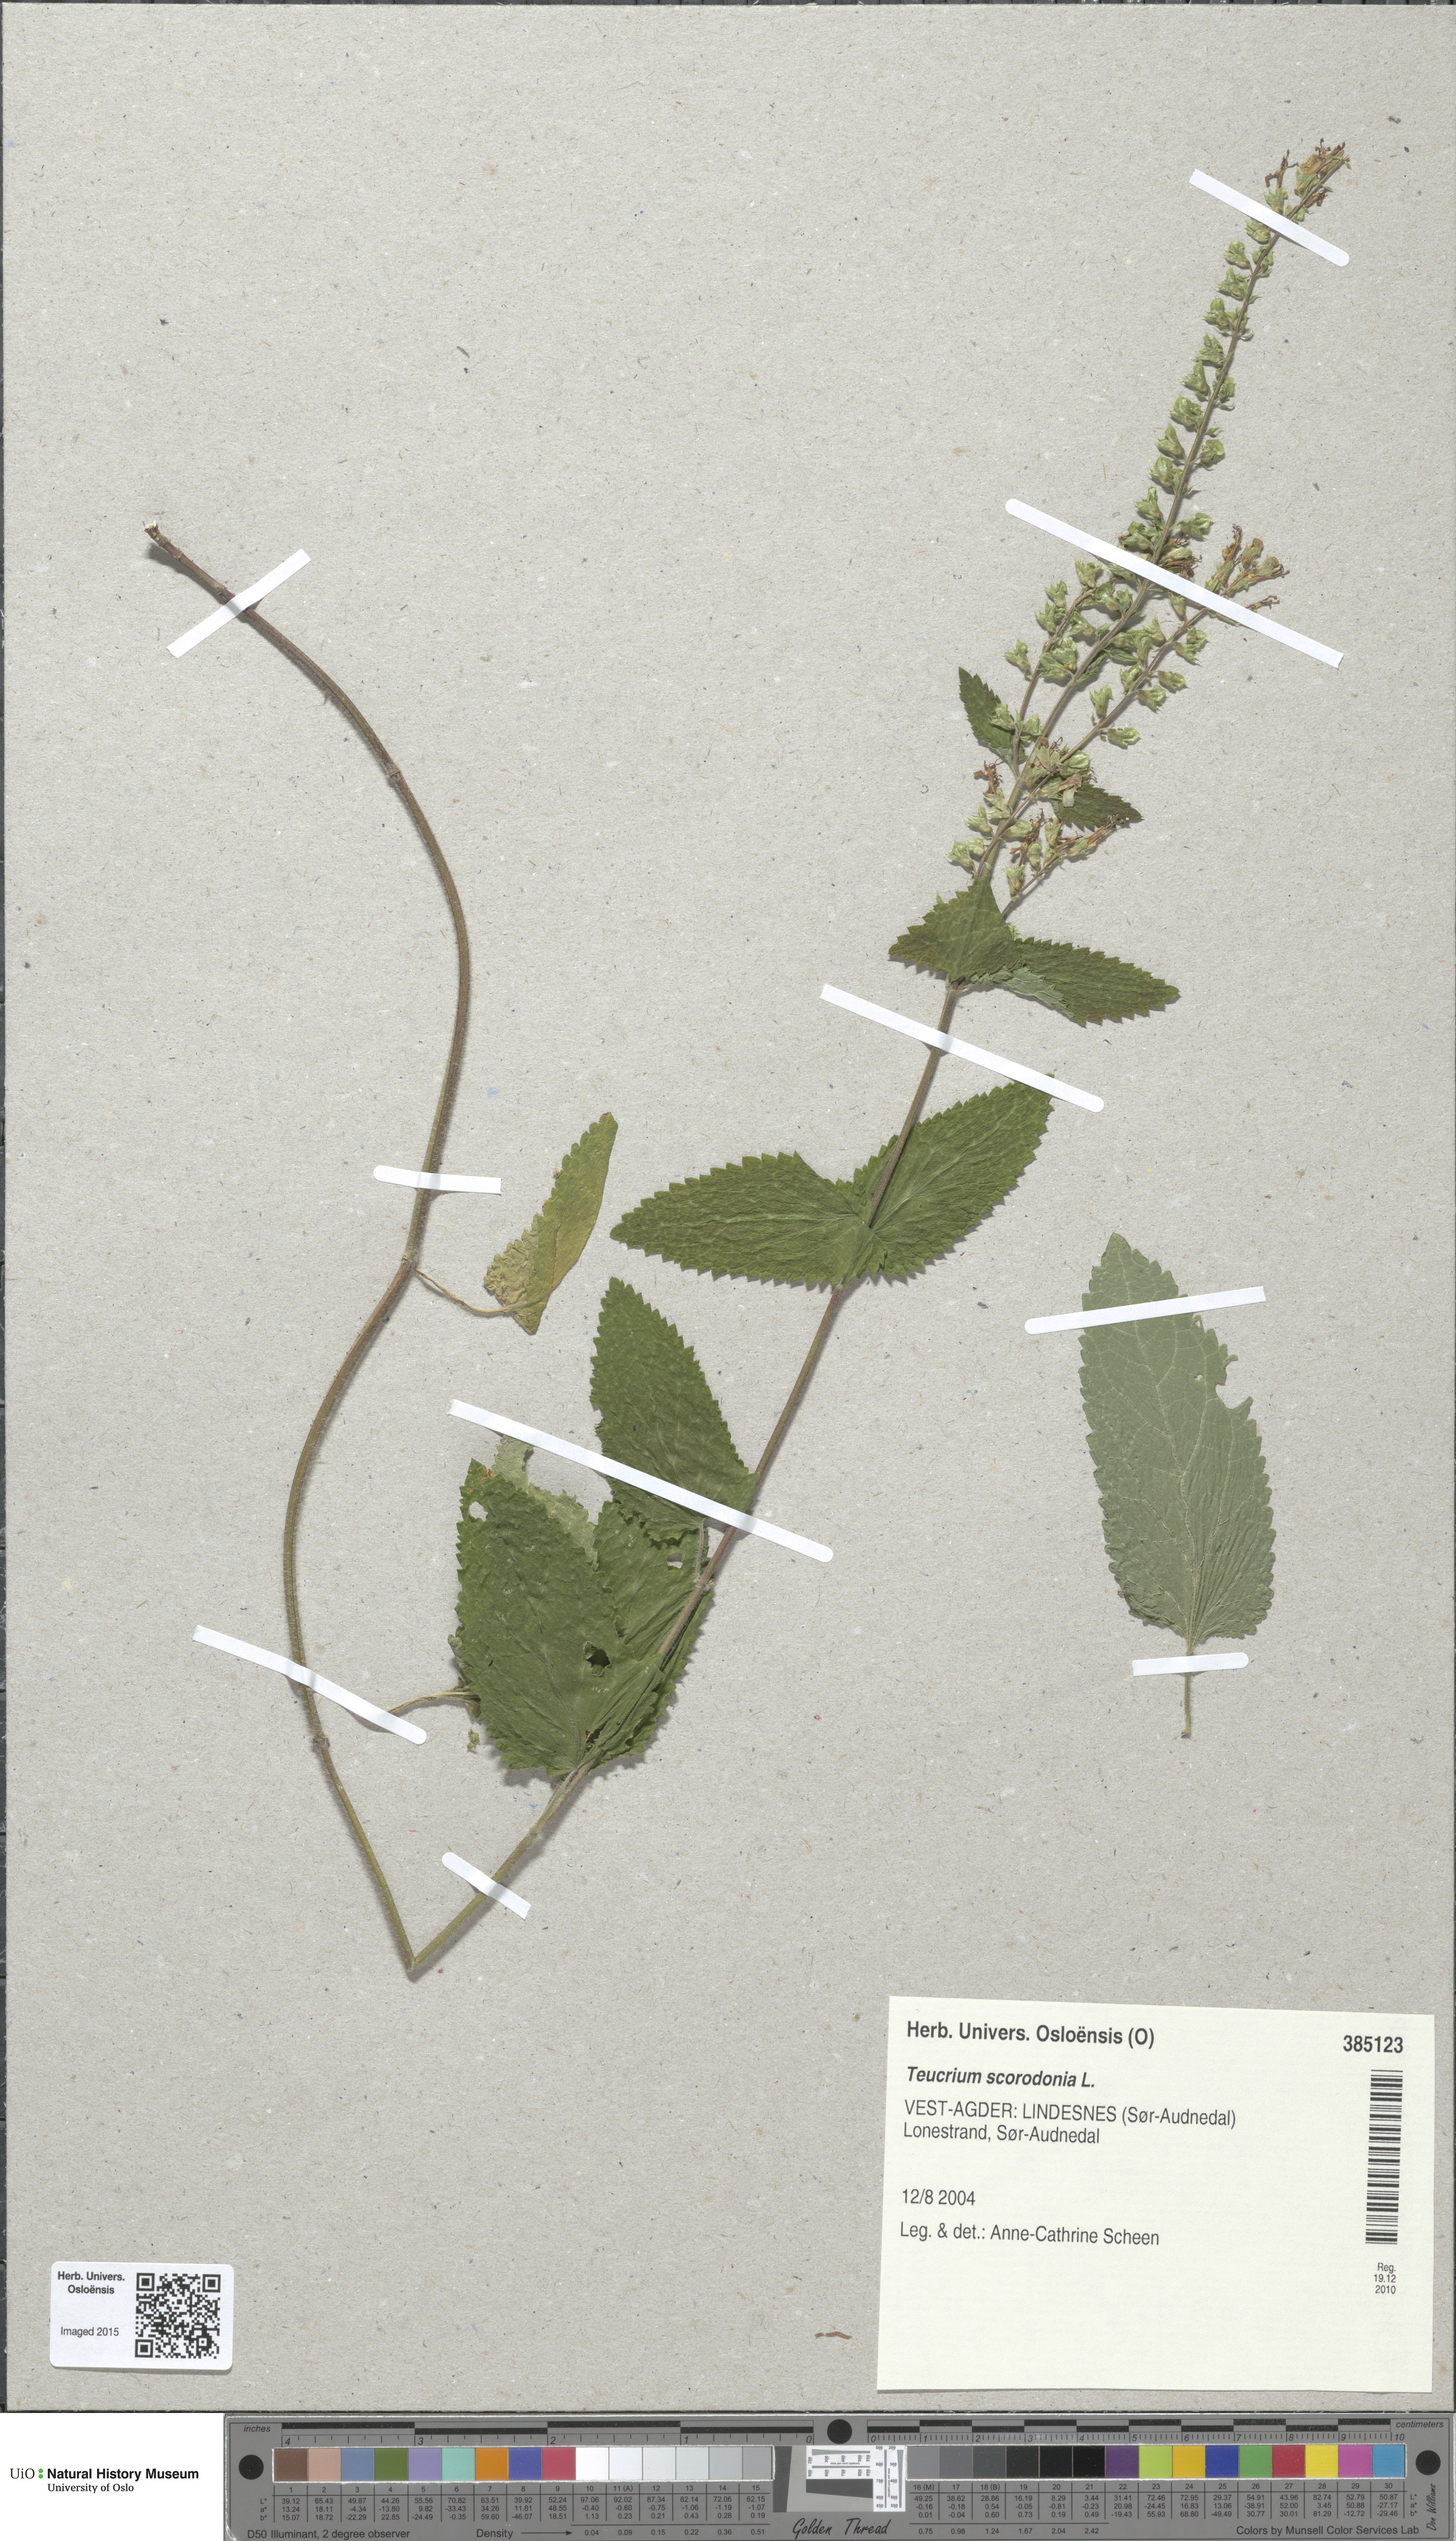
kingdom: Plantae
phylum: Tracheophyta
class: Magnoliopsida
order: Lamiales
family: Lamiaceae
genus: Teucrium
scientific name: Teucrium scorodonia
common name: Woodland germander
